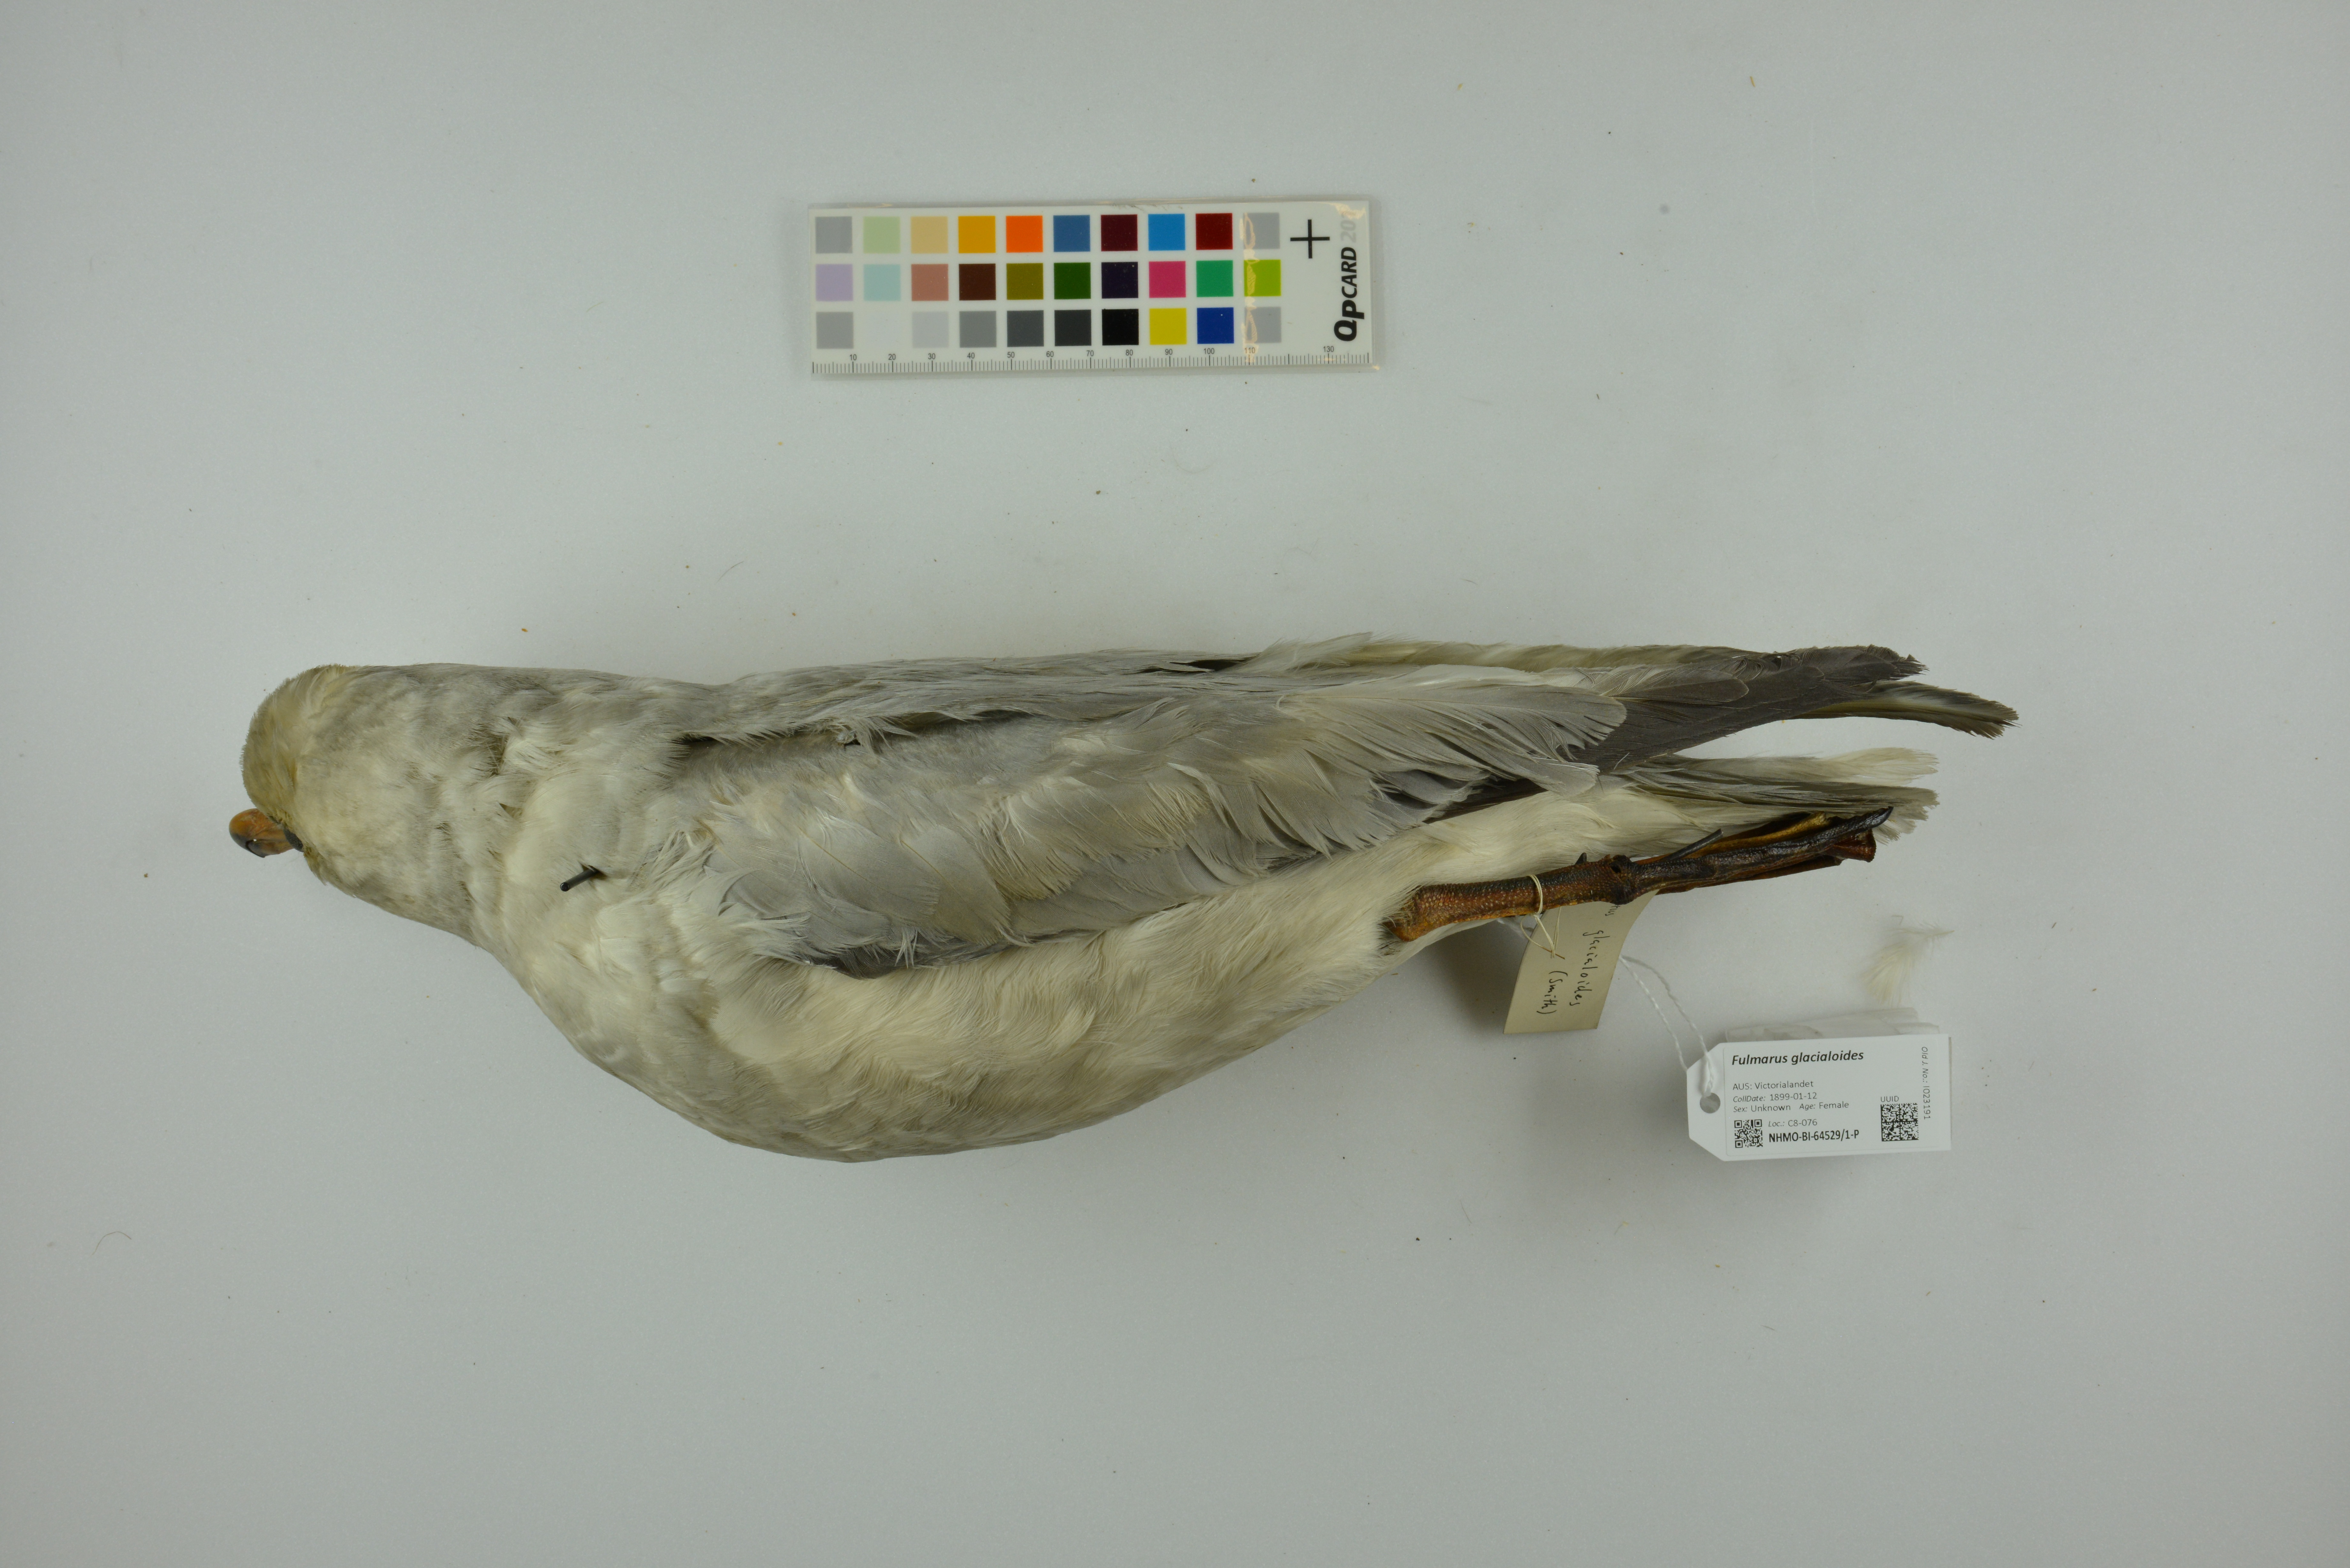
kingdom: Animalia
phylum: Chordata
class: Aves
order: Procellariiformes
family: Procellariidae
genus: Fulmarus
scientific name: Fulmarus glacialoides
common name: Southern fulmar
